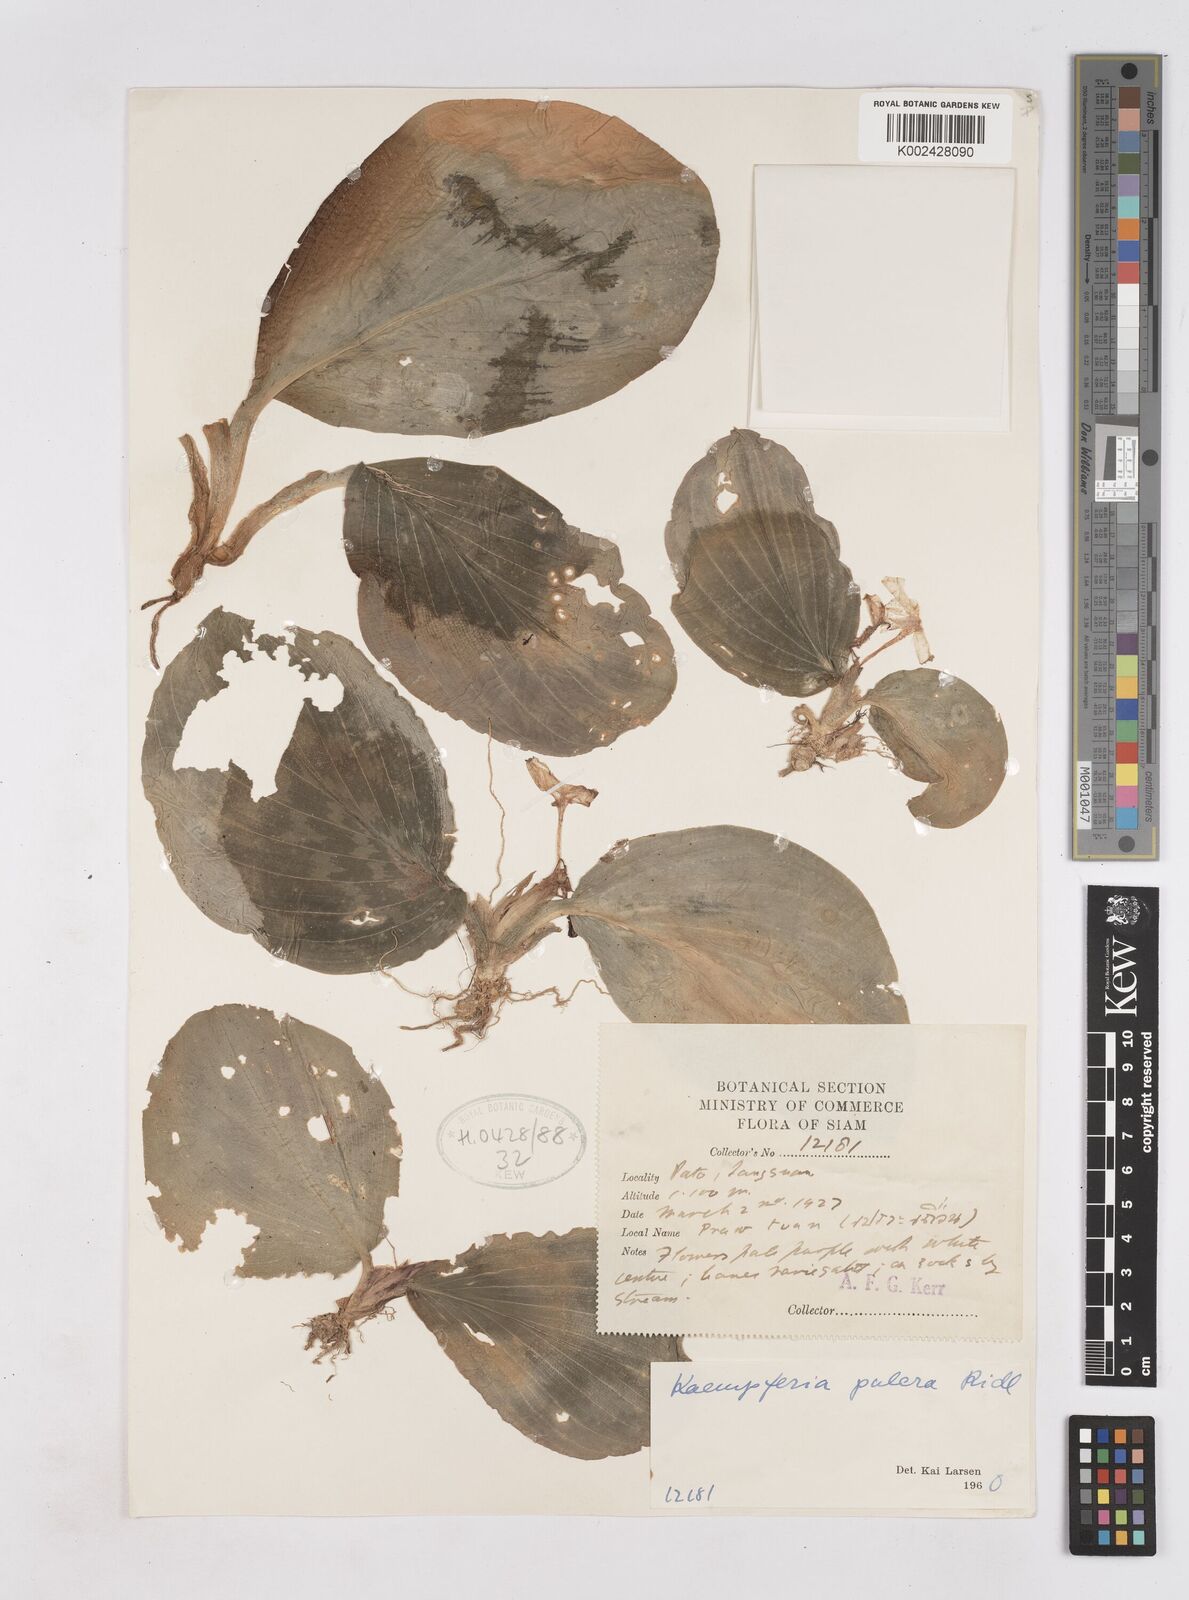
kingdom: Plantae
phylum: Tracheophyta
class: Liliopsida
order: Zingiberales
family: Zingiberaceae
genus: Kaempferia
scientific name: Kaempferia elegans
